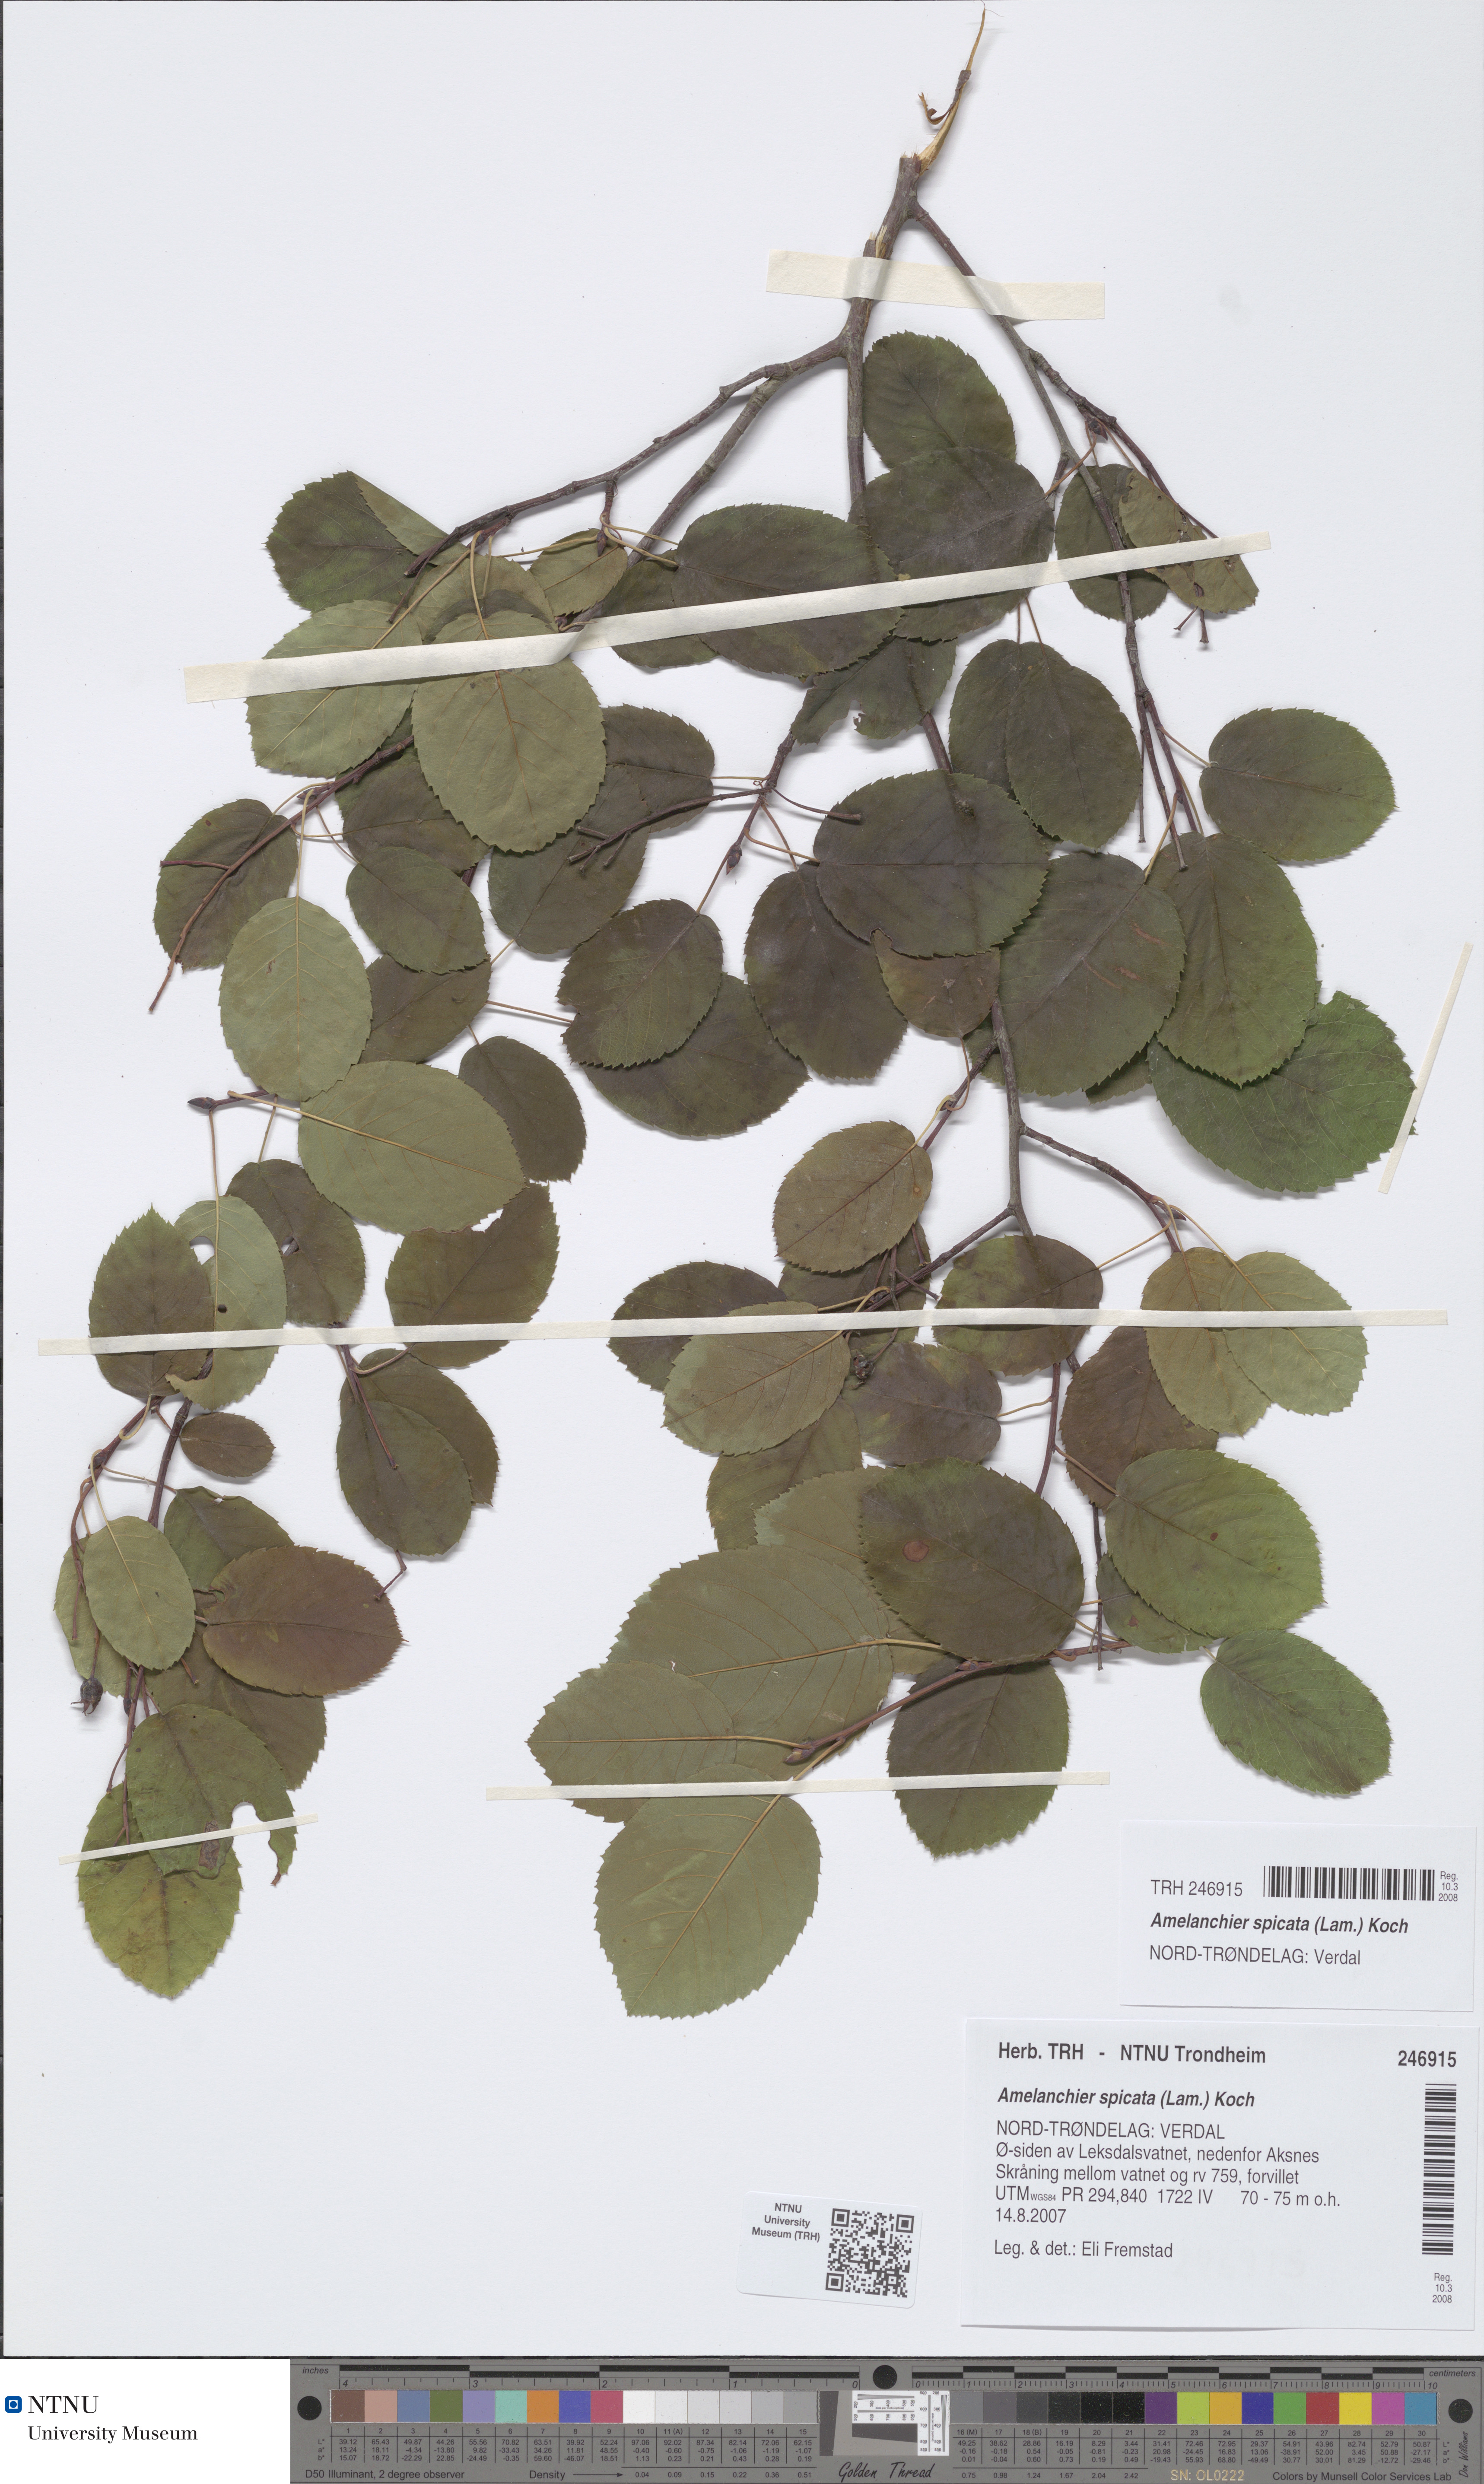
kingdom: Plantae
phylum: Tracheophyta
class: Magnoliopsida
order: Rosales
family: Rosaceae
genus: Amelanchier
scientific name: Amelanchier humilis
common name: Low juneberry
